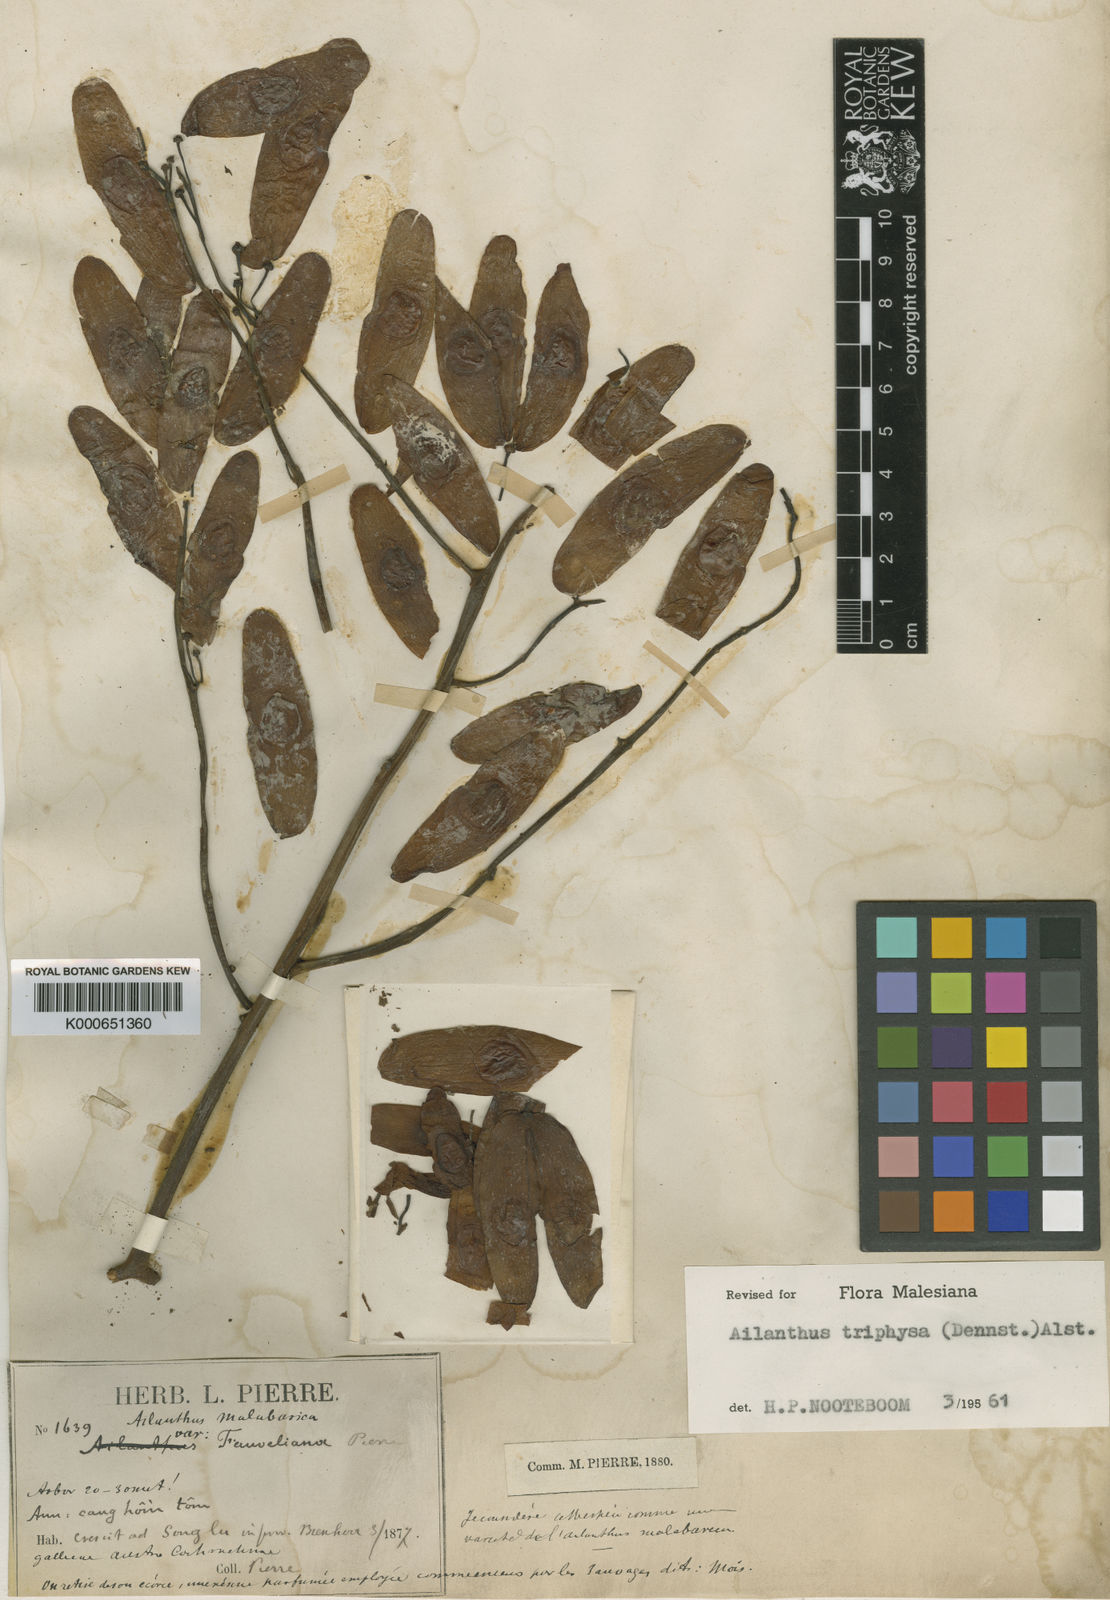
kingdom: Plantae
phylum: Tracheophyta
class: Magnoliopsida
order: Sapindales
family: Simaroubaceae
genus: Ailanthus
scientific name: Ailanthus triphysa
